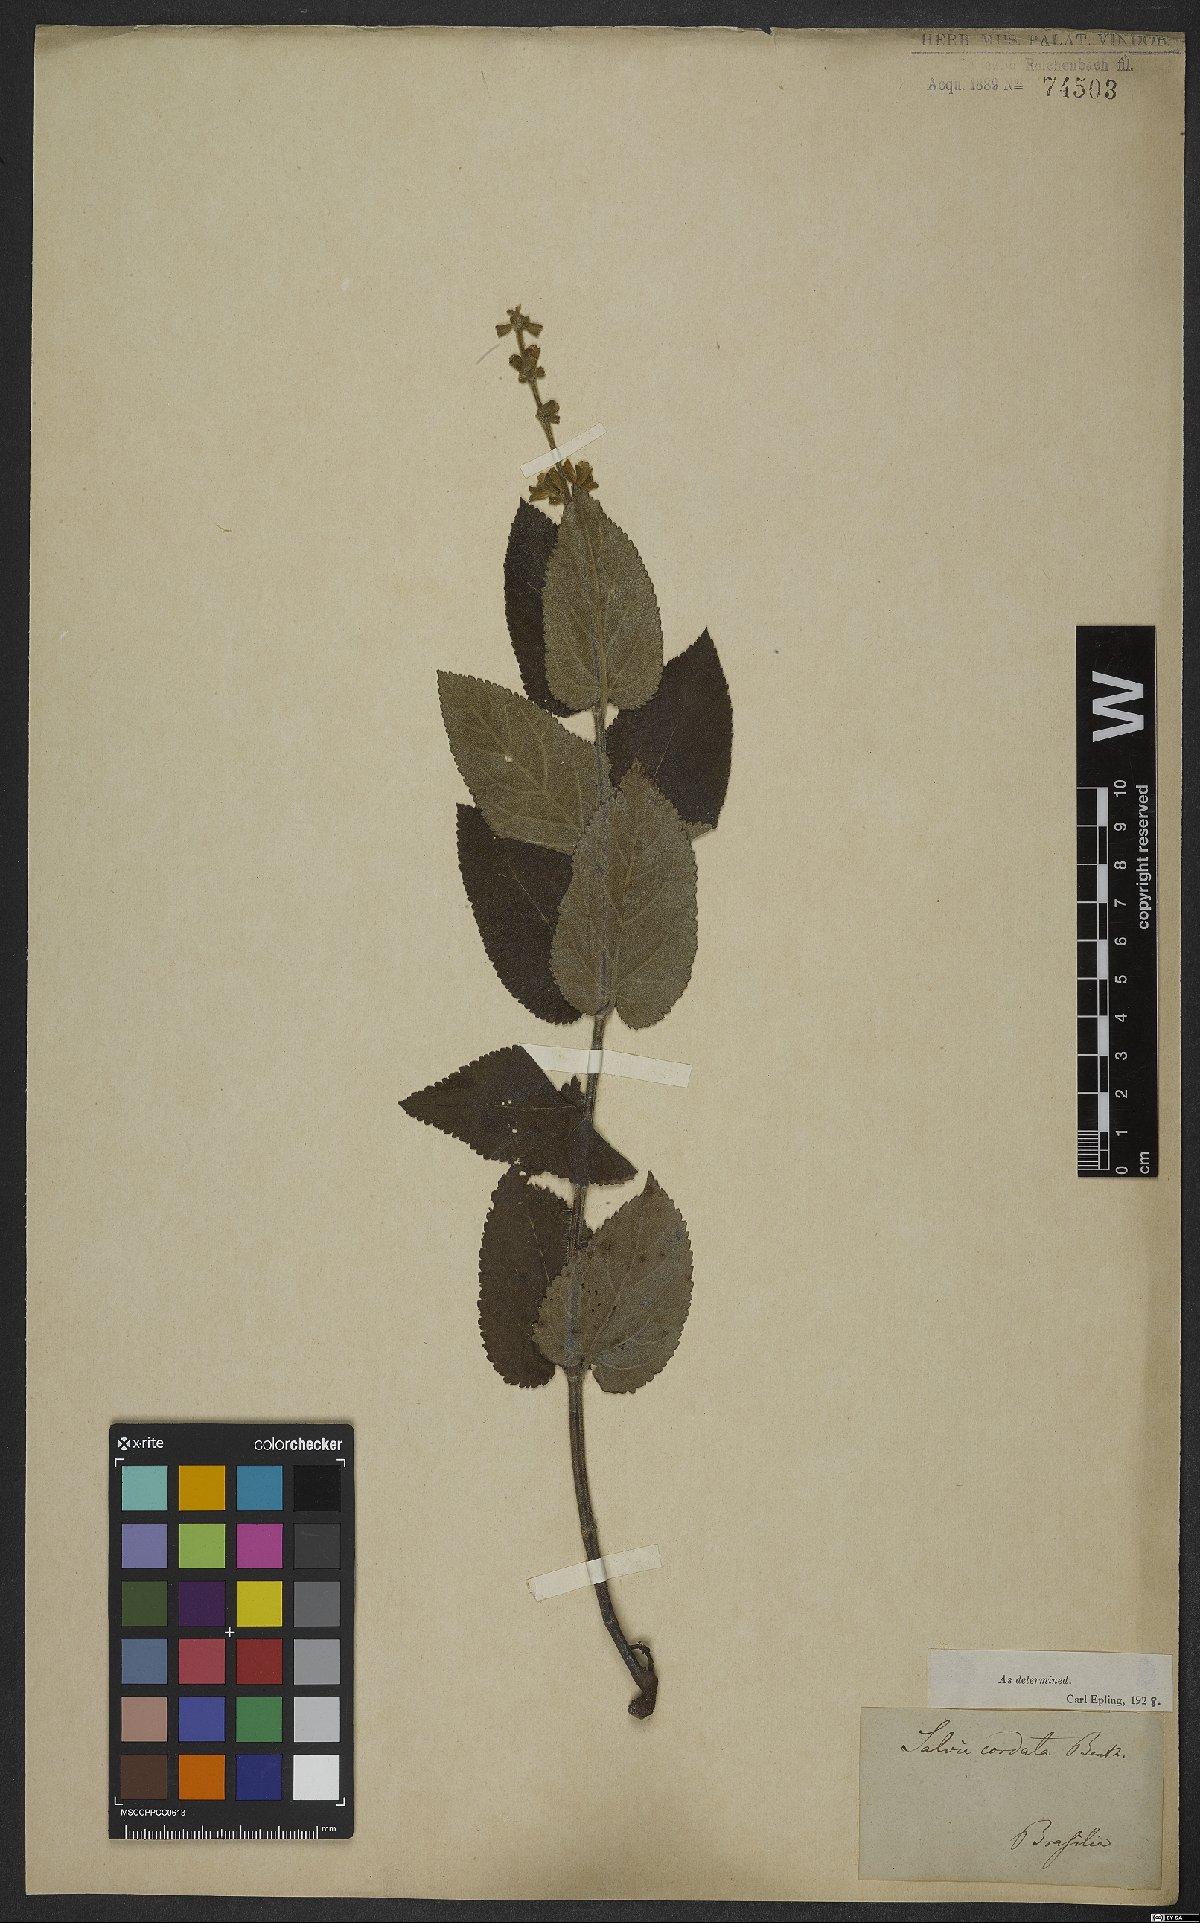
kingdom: Plantae
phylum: Tracheophyta
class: Magnoliopsida
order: Lamiales
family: Lamiaceae
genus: Salvia
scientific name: Salvia cordata
